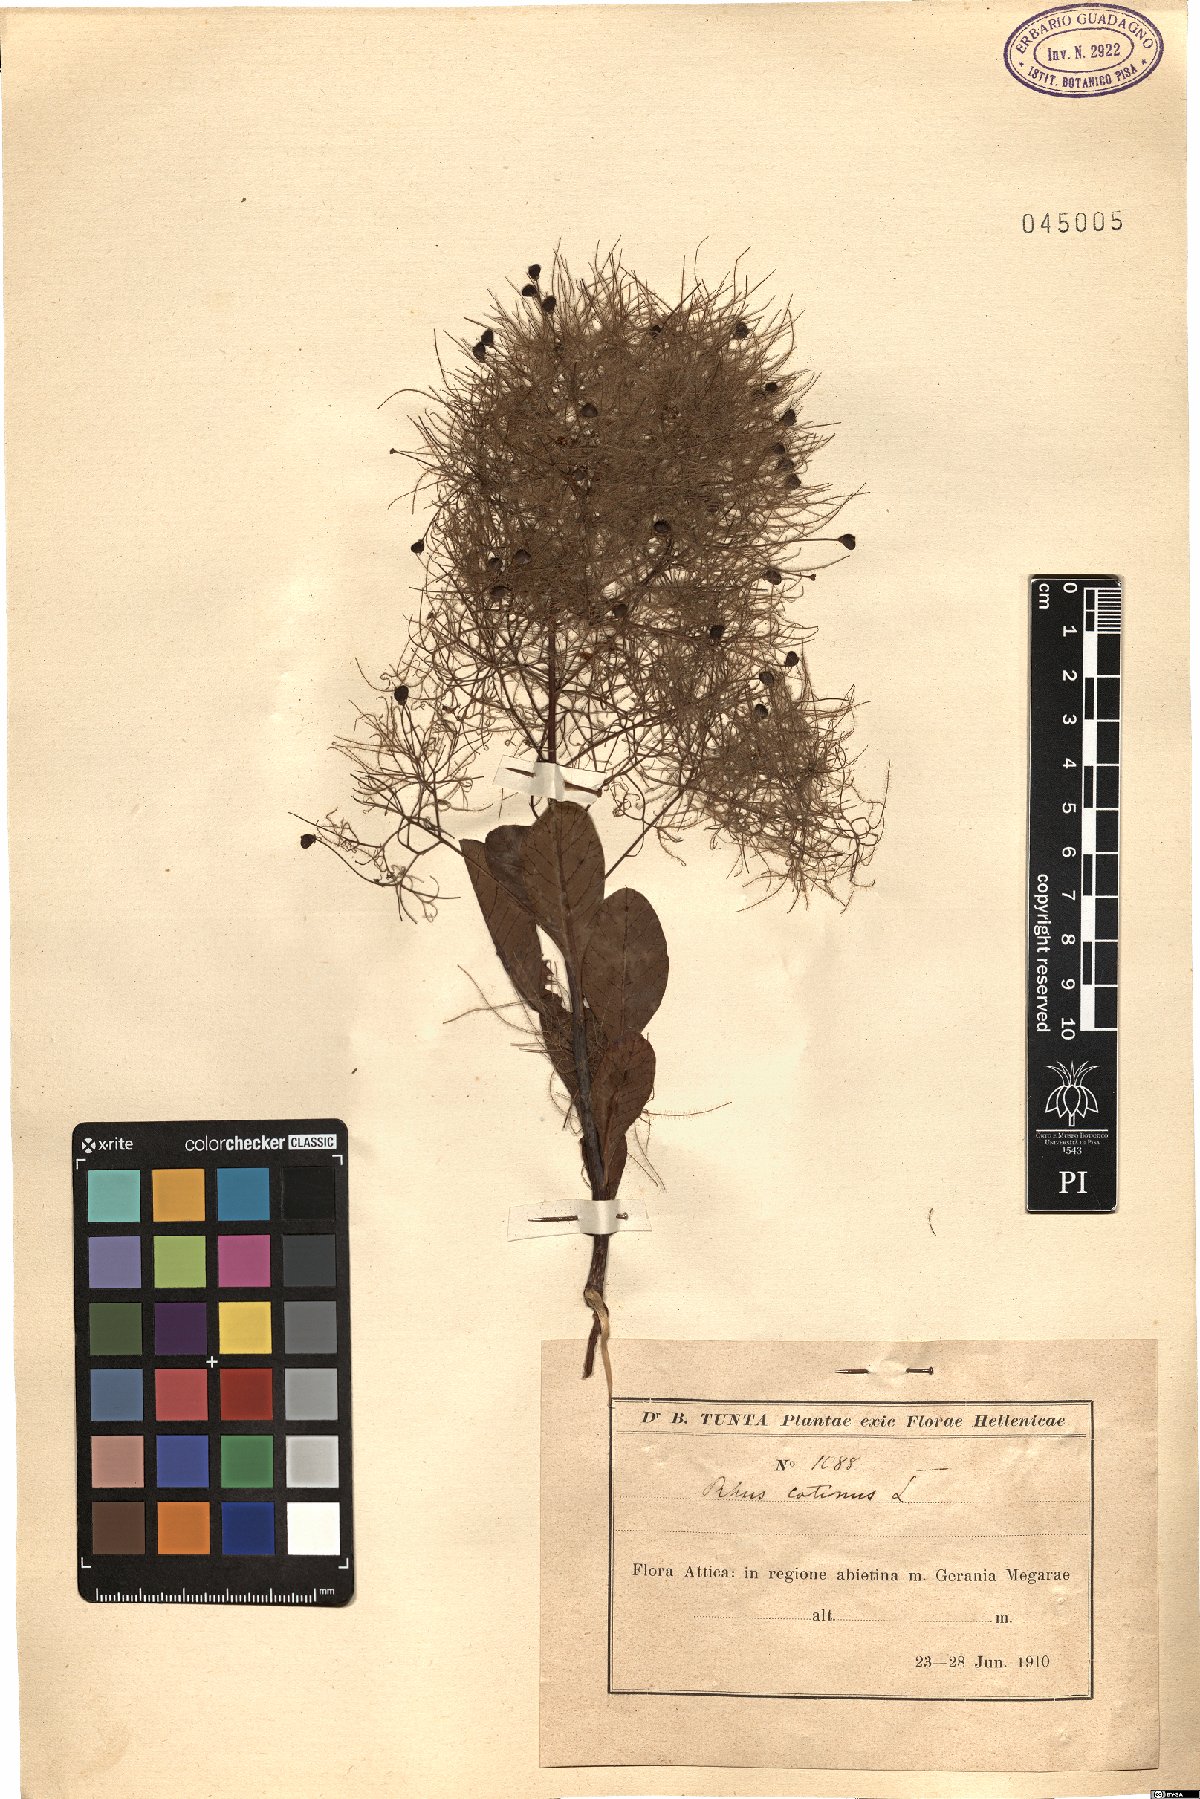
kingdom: Plantae
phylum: Tracheophyta
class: Magnoliopsida
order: Sapindales
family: Anacardiaceae
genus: Cotinus
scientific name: Cotinus coggygria
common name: Smoke-tree
